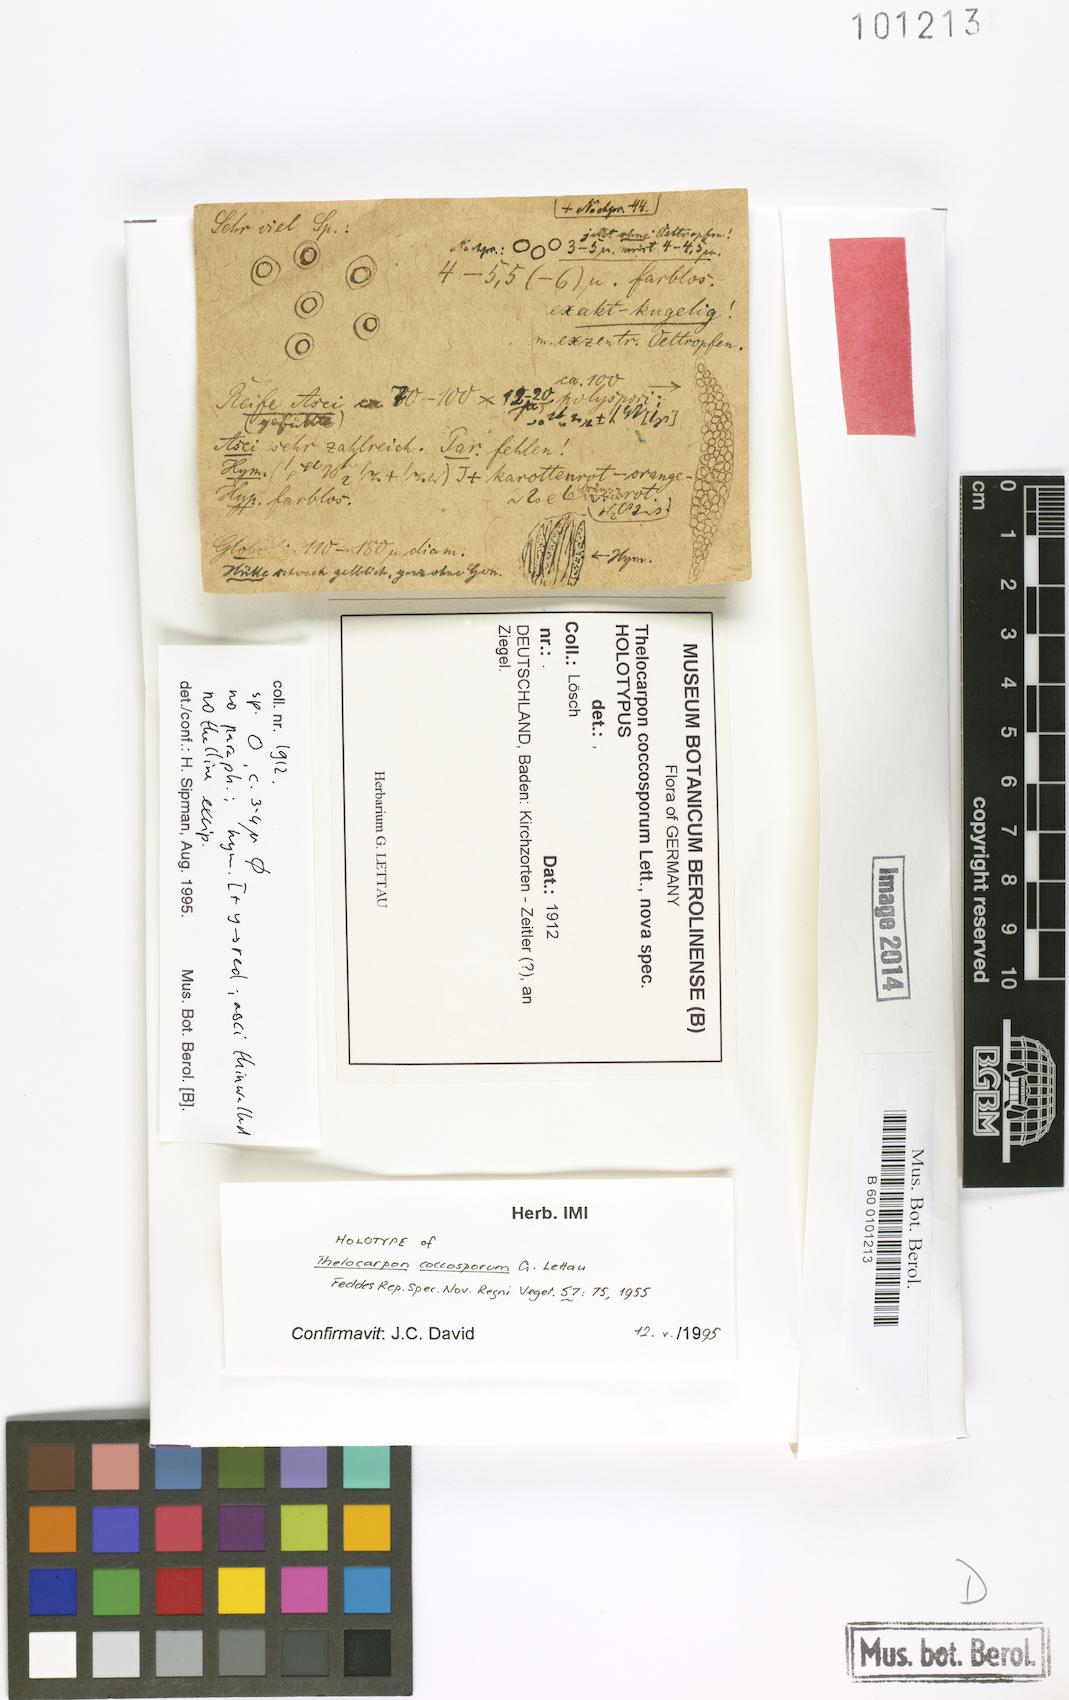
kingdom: Fungi
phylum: Ascomycota
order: Thelocarpales
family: Thelocarpaceae
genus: Thelocarpon
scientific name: Thelocarpon coccosporum
